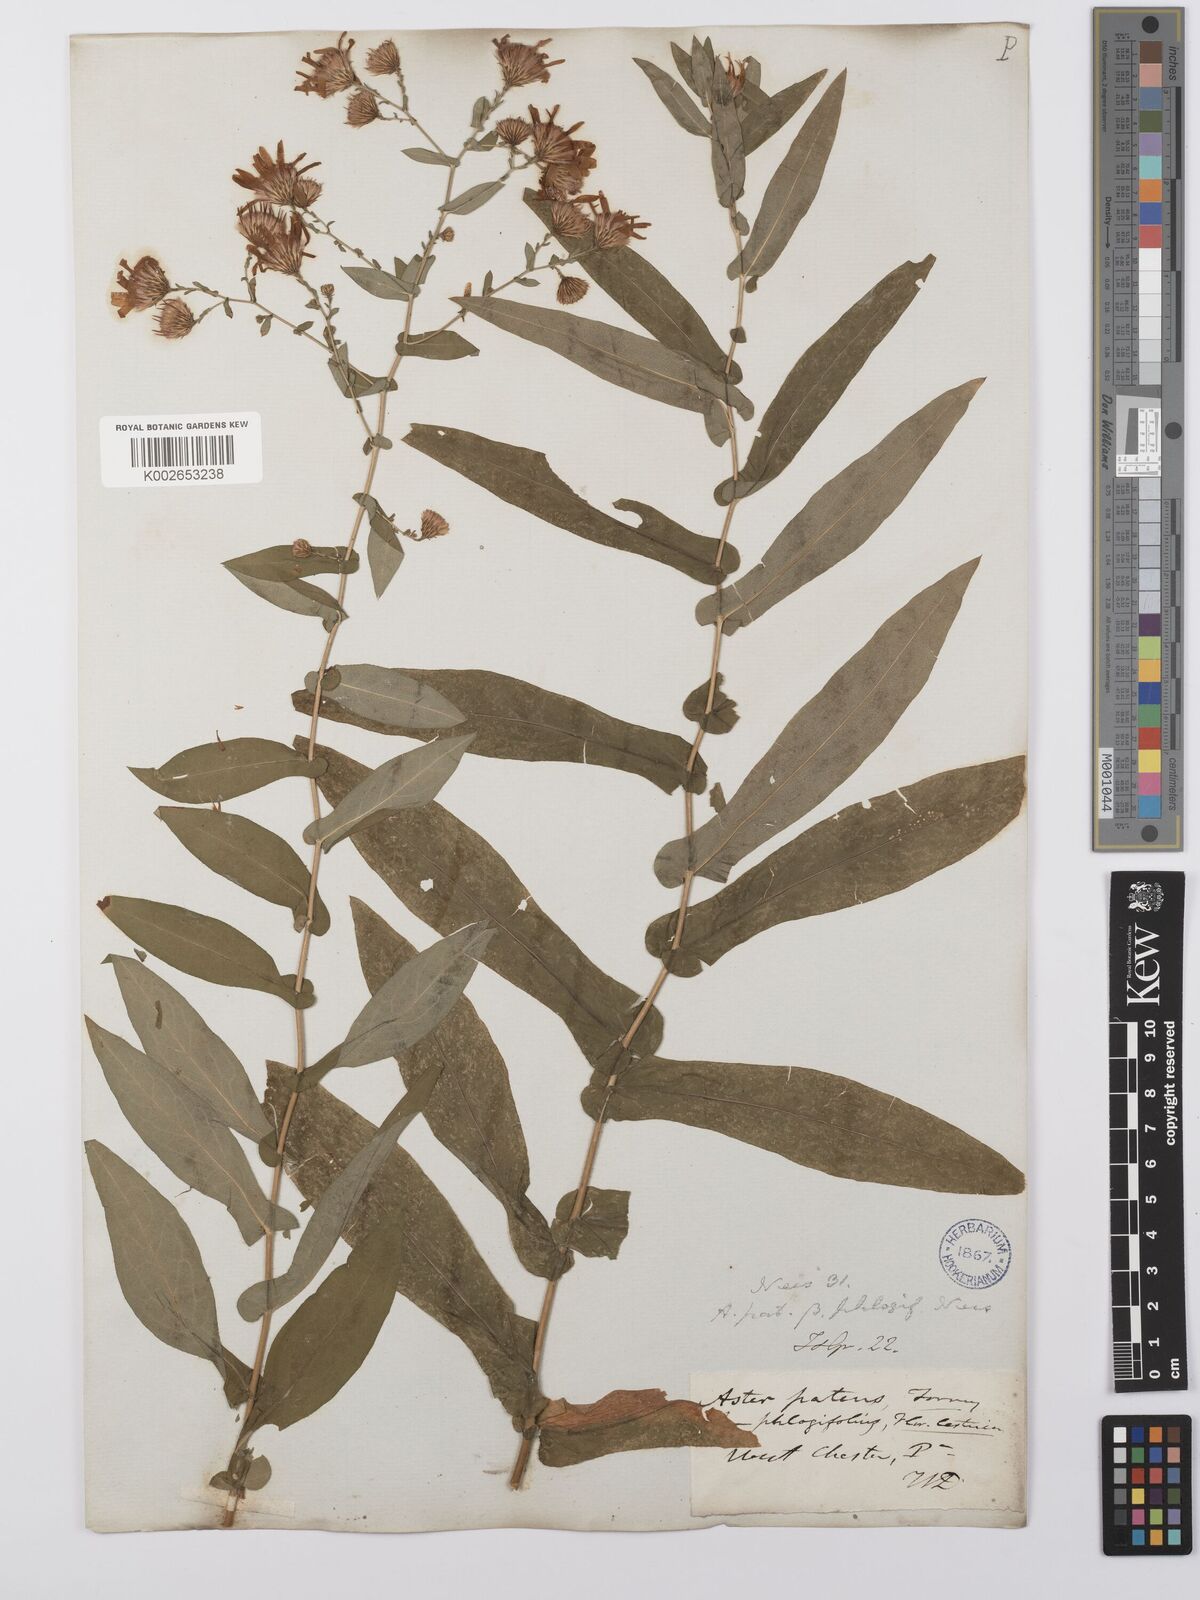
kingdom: Plantae
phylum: Tracheophyta
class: Magnoliopsida
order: Asterales
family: Asteraceae
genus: Symphyotrichum
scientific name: Symphyotrichum phlogifolium
